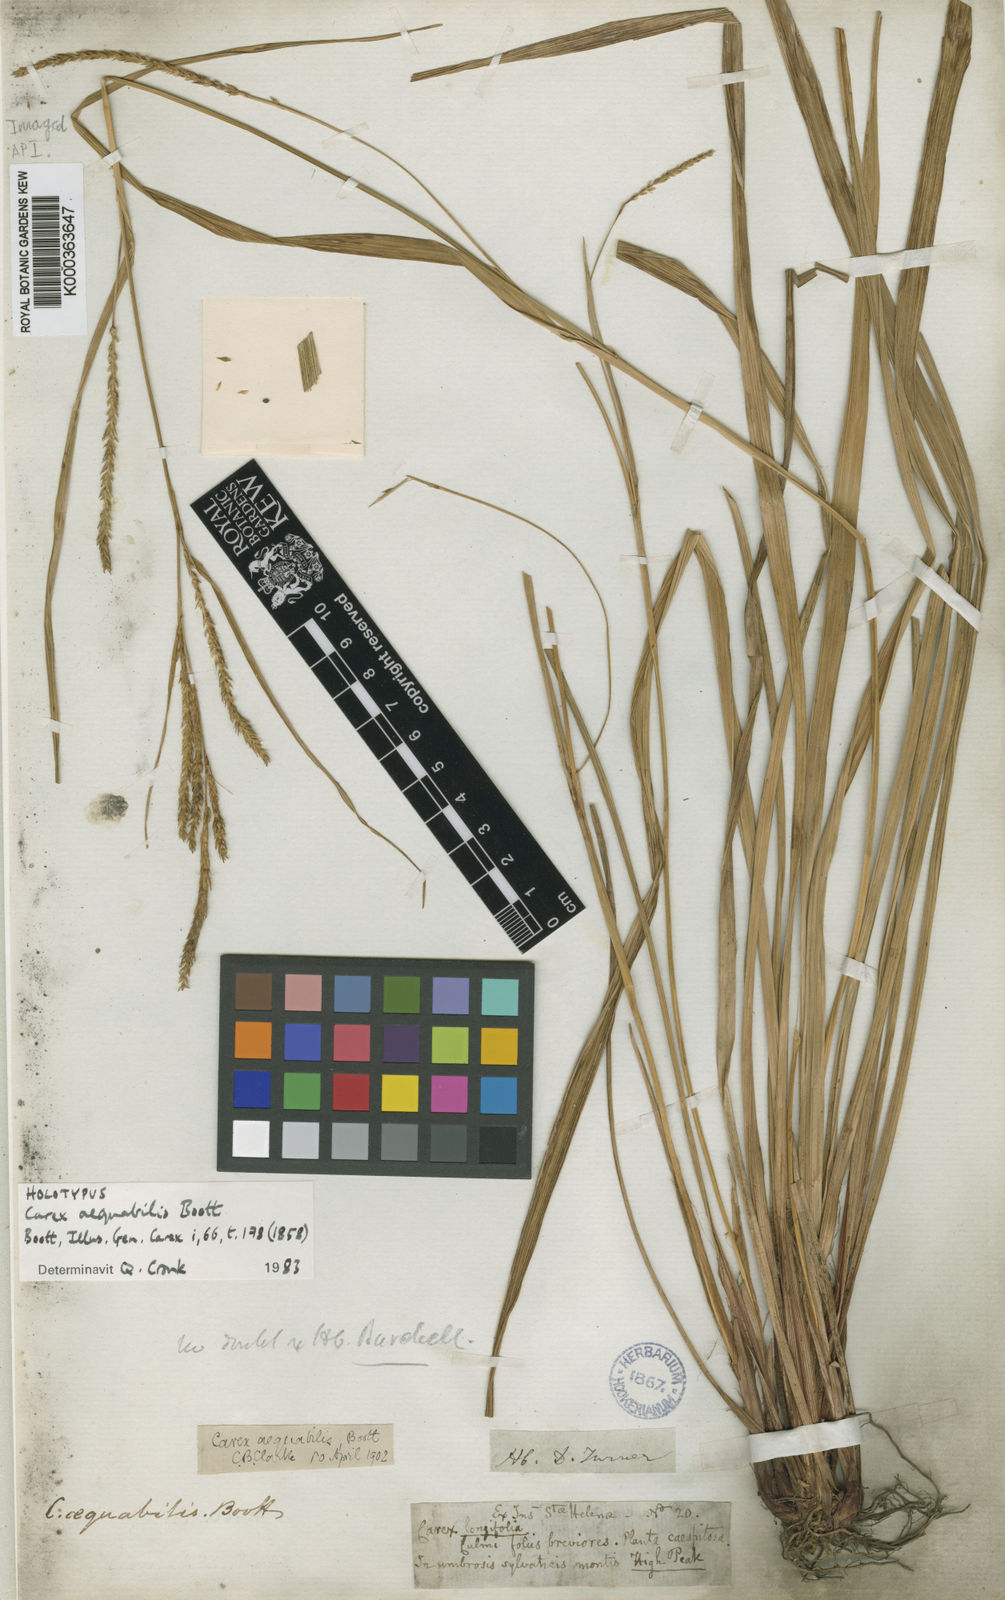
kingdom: Plantae
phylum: Tracheophyta
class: Liliopsida
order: Poales
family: Cyperaceae
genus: Carex
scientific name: Carex dianae
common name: Diana's peak grass
